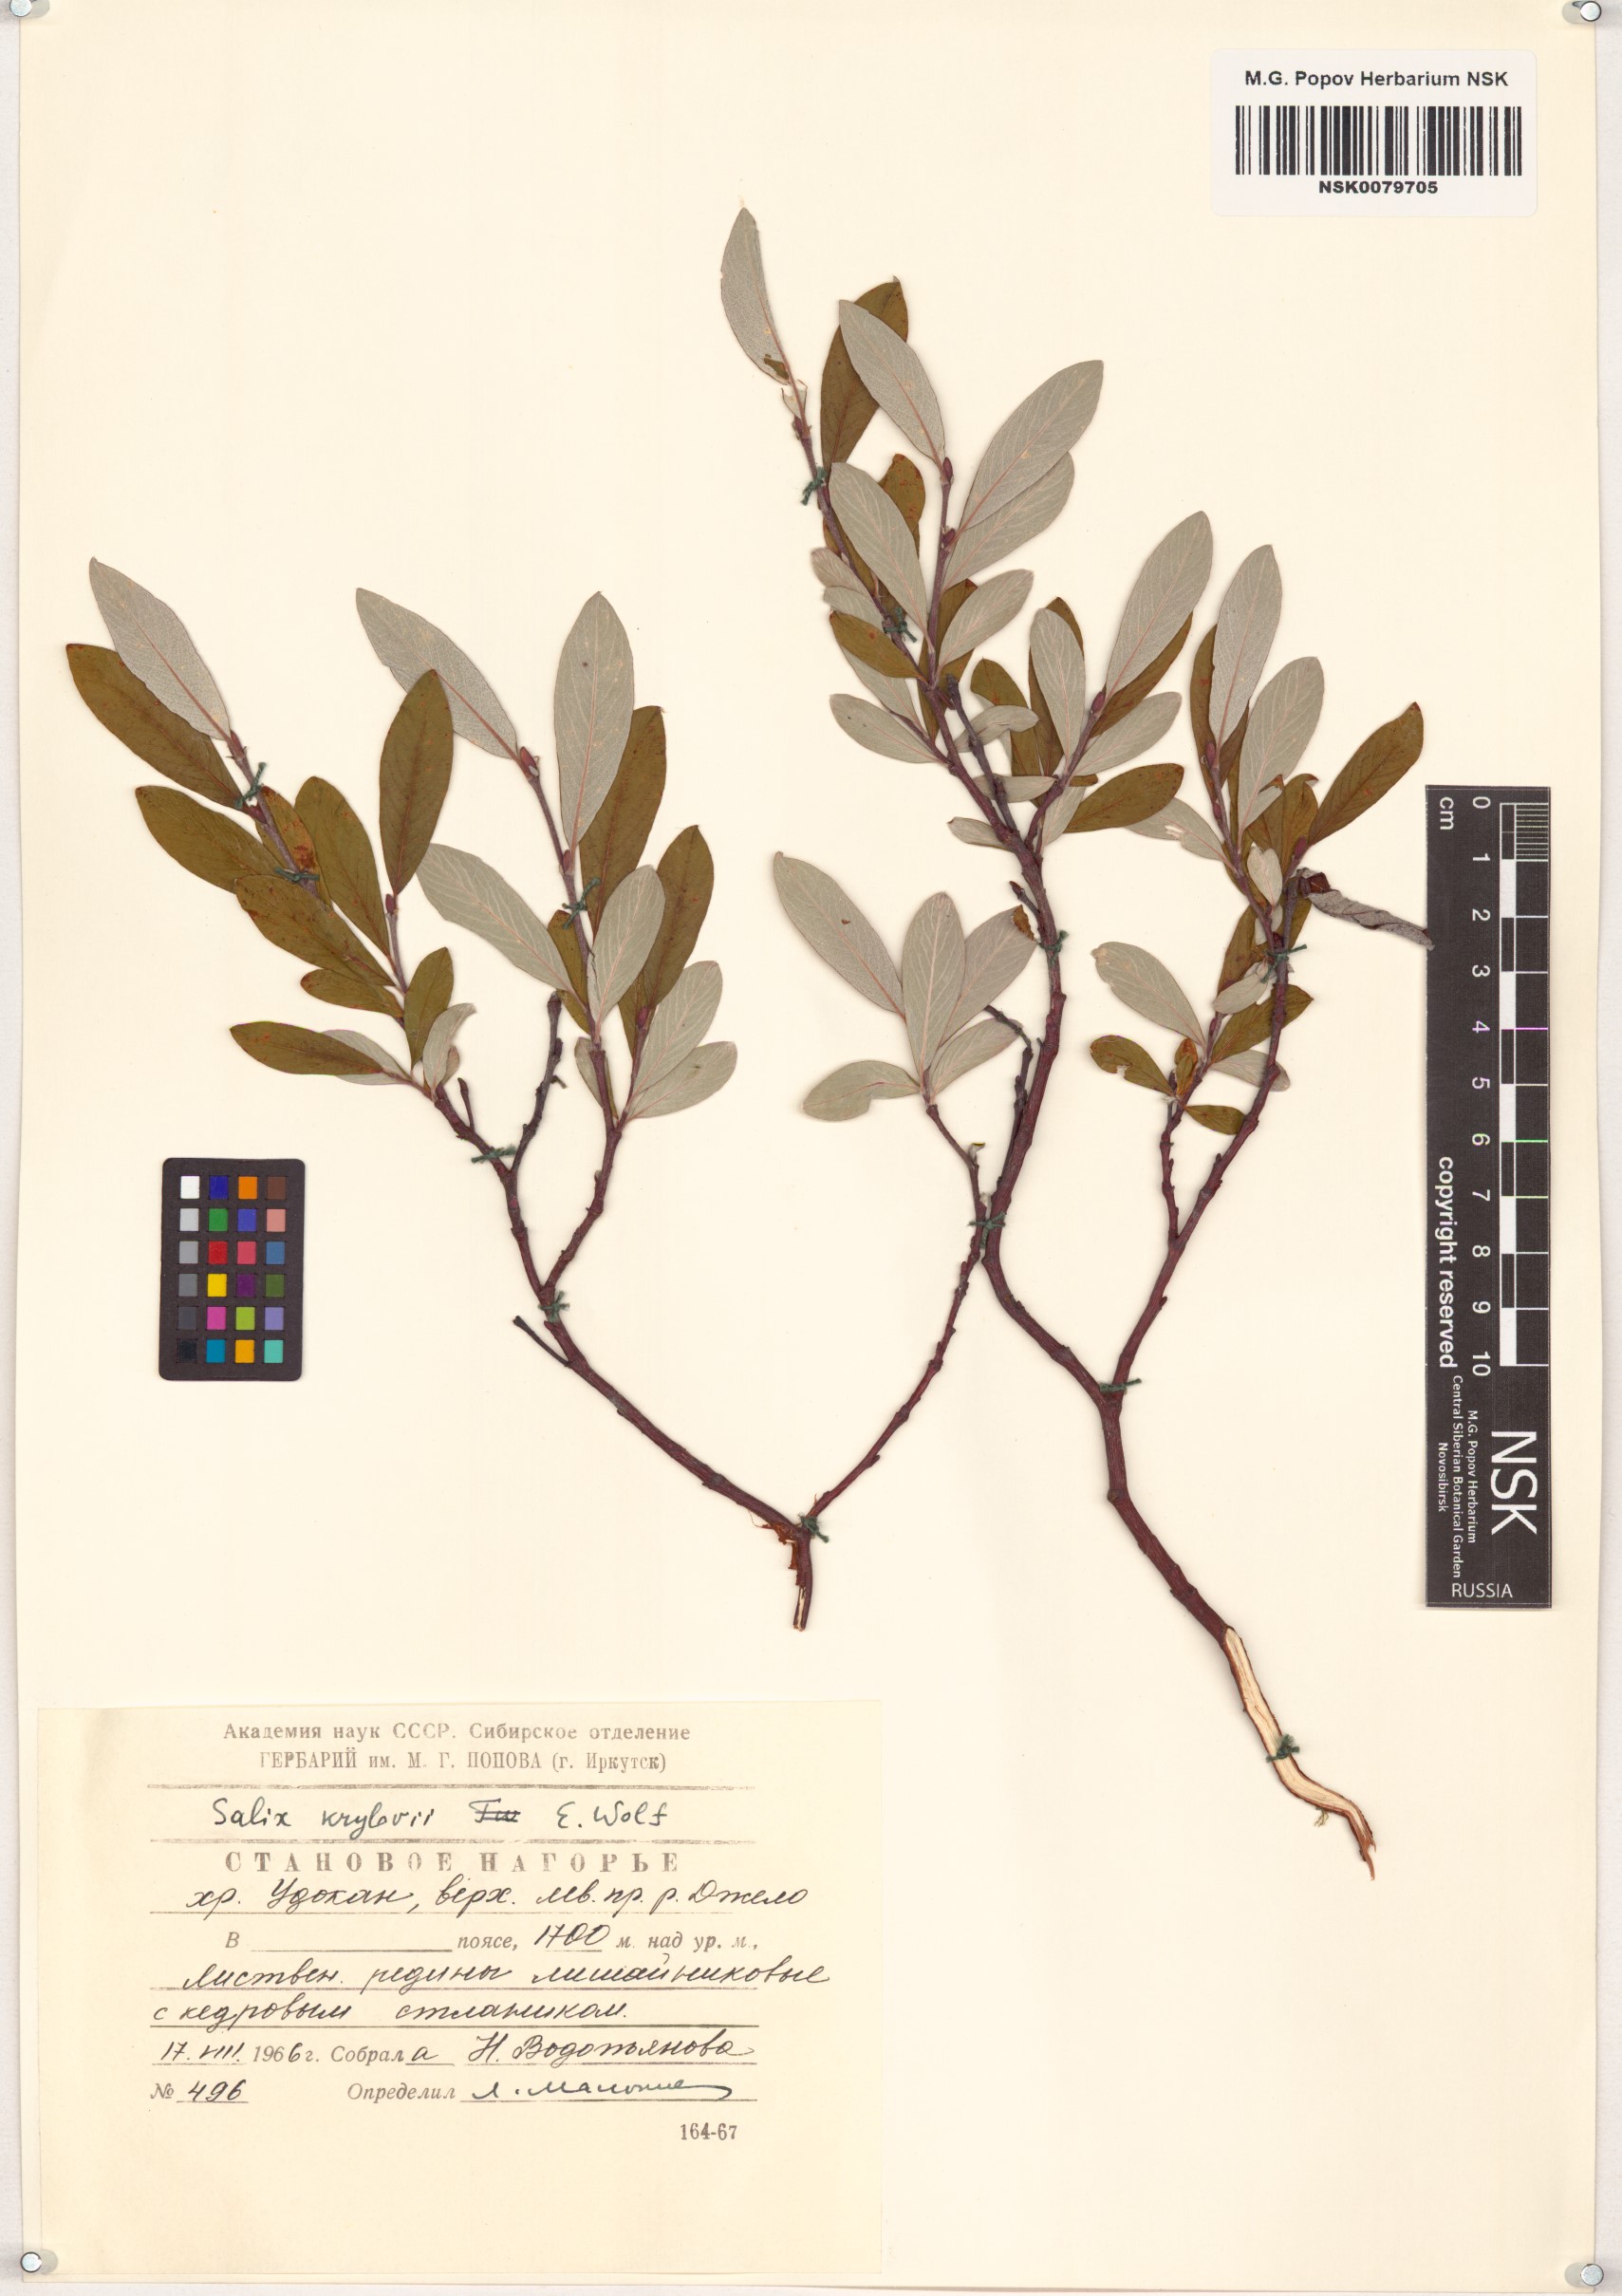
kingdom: Plantae
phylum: Tracheophyta
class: Magnoliopsida
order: Malpighiales
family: Salicaceae
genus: Salix
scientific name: Salix krylovii
